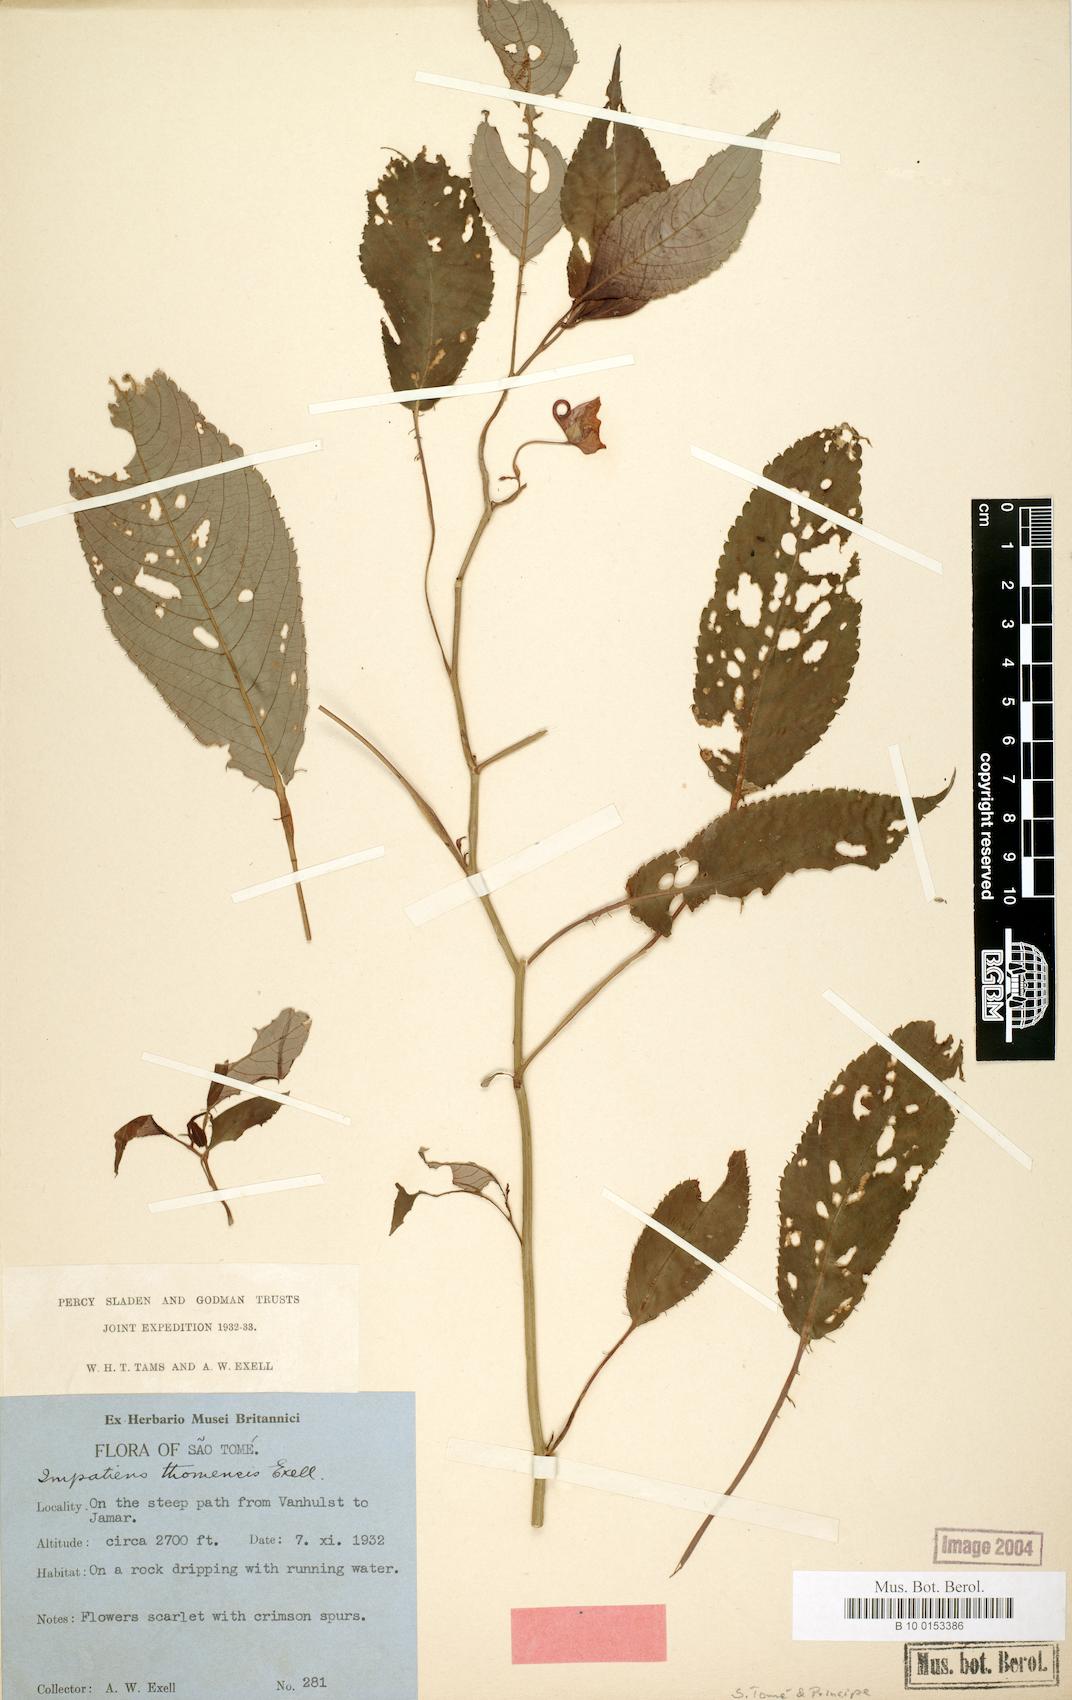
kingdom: Plantae
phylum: Tracheophyta
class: Magnoliopsida
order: Ericales
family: Balsaminaceae
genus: Impatiens
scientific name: Impatiens thomensis
